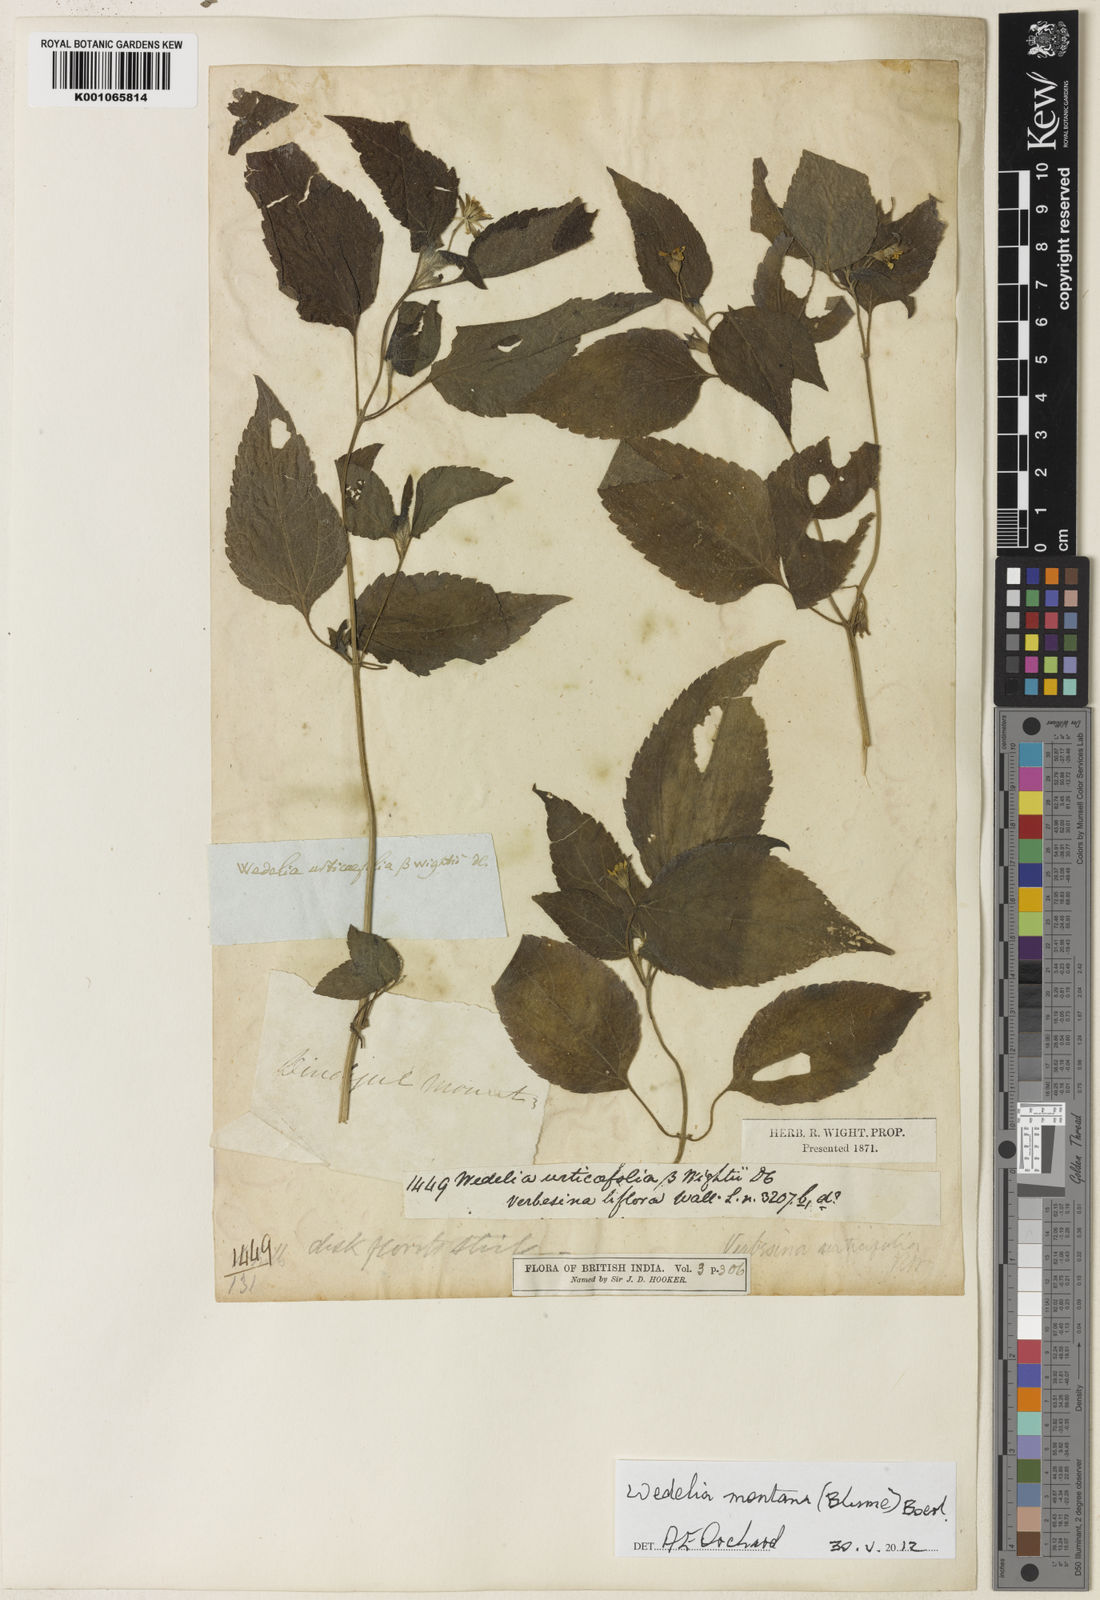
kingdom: Plantae
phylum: Tracheophyta
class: Magnoliopsida
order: Asterales
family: Asteraceae
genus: Indocypraea
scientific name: Indocypraea montana
